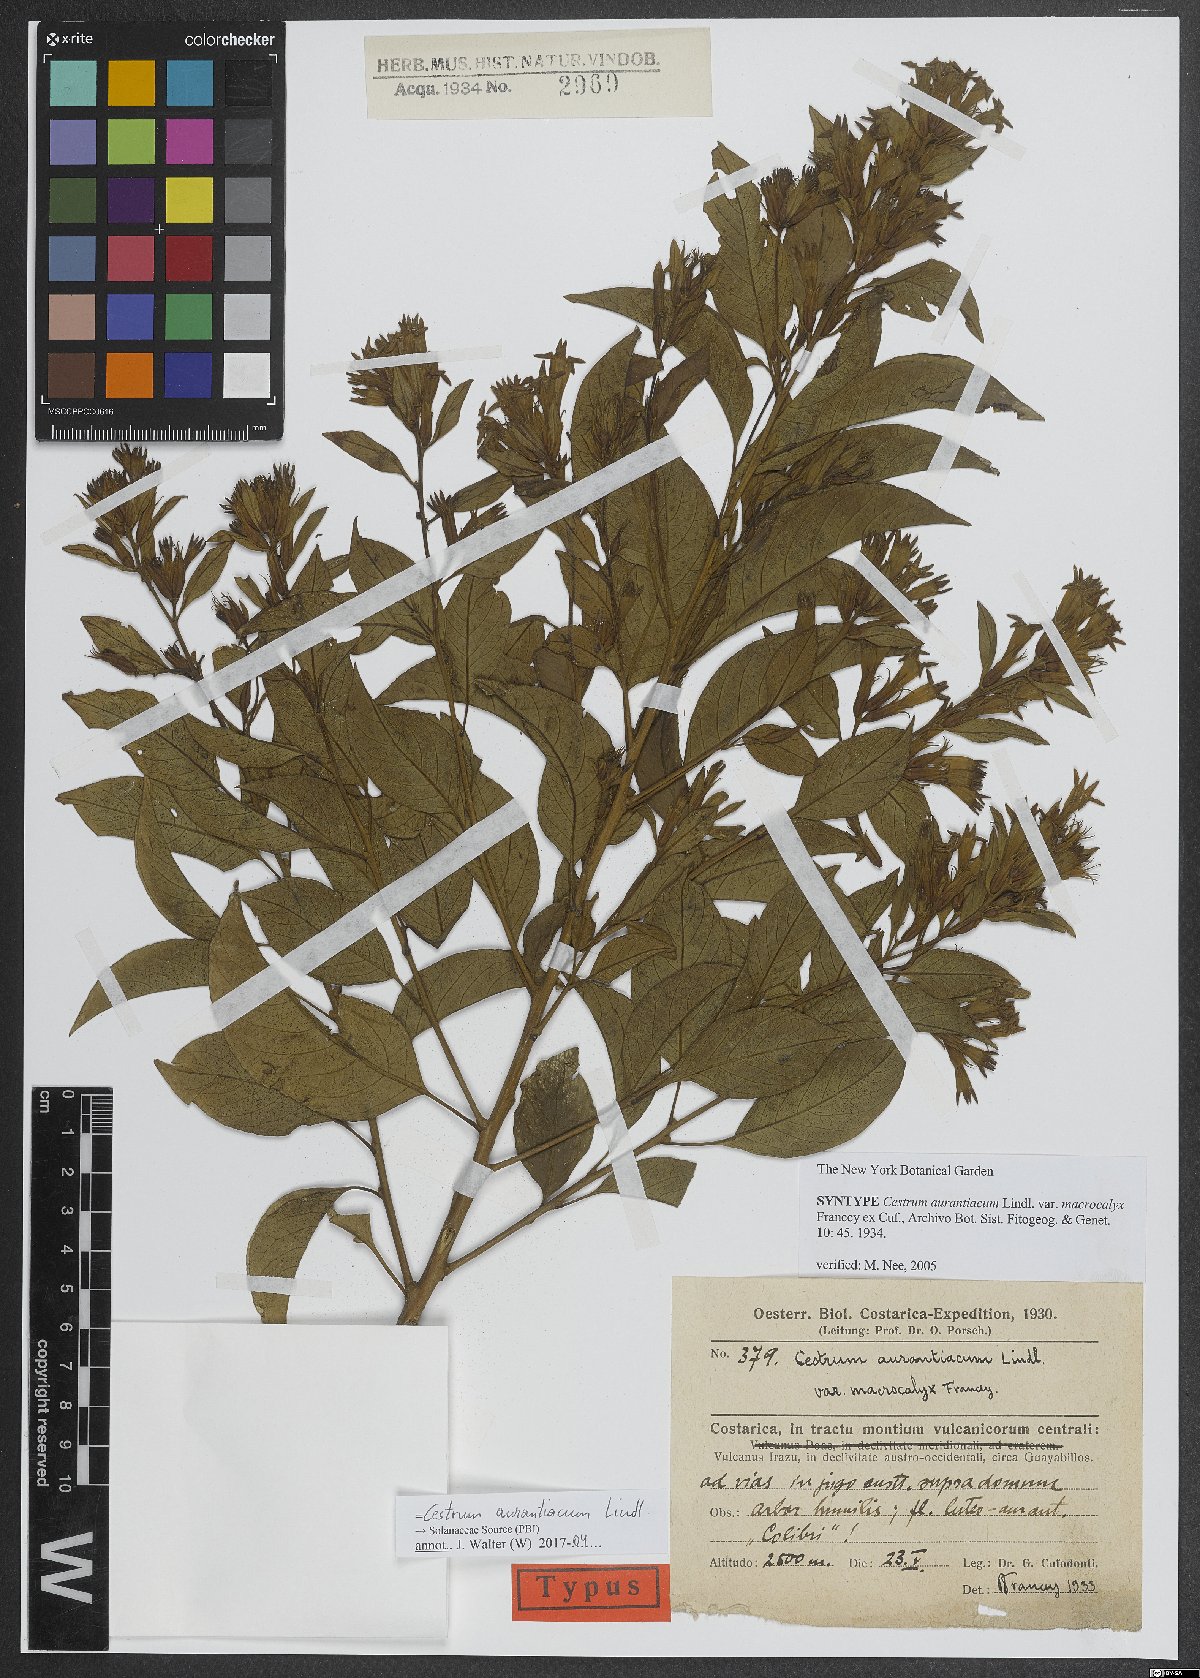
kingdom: Plantae
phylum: Tracheophyta
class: Magnoliopsida
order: Solanales
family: Solanaceae
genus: Cestrum
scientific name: Cestrum aurantiacum
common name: Orange cestrum
